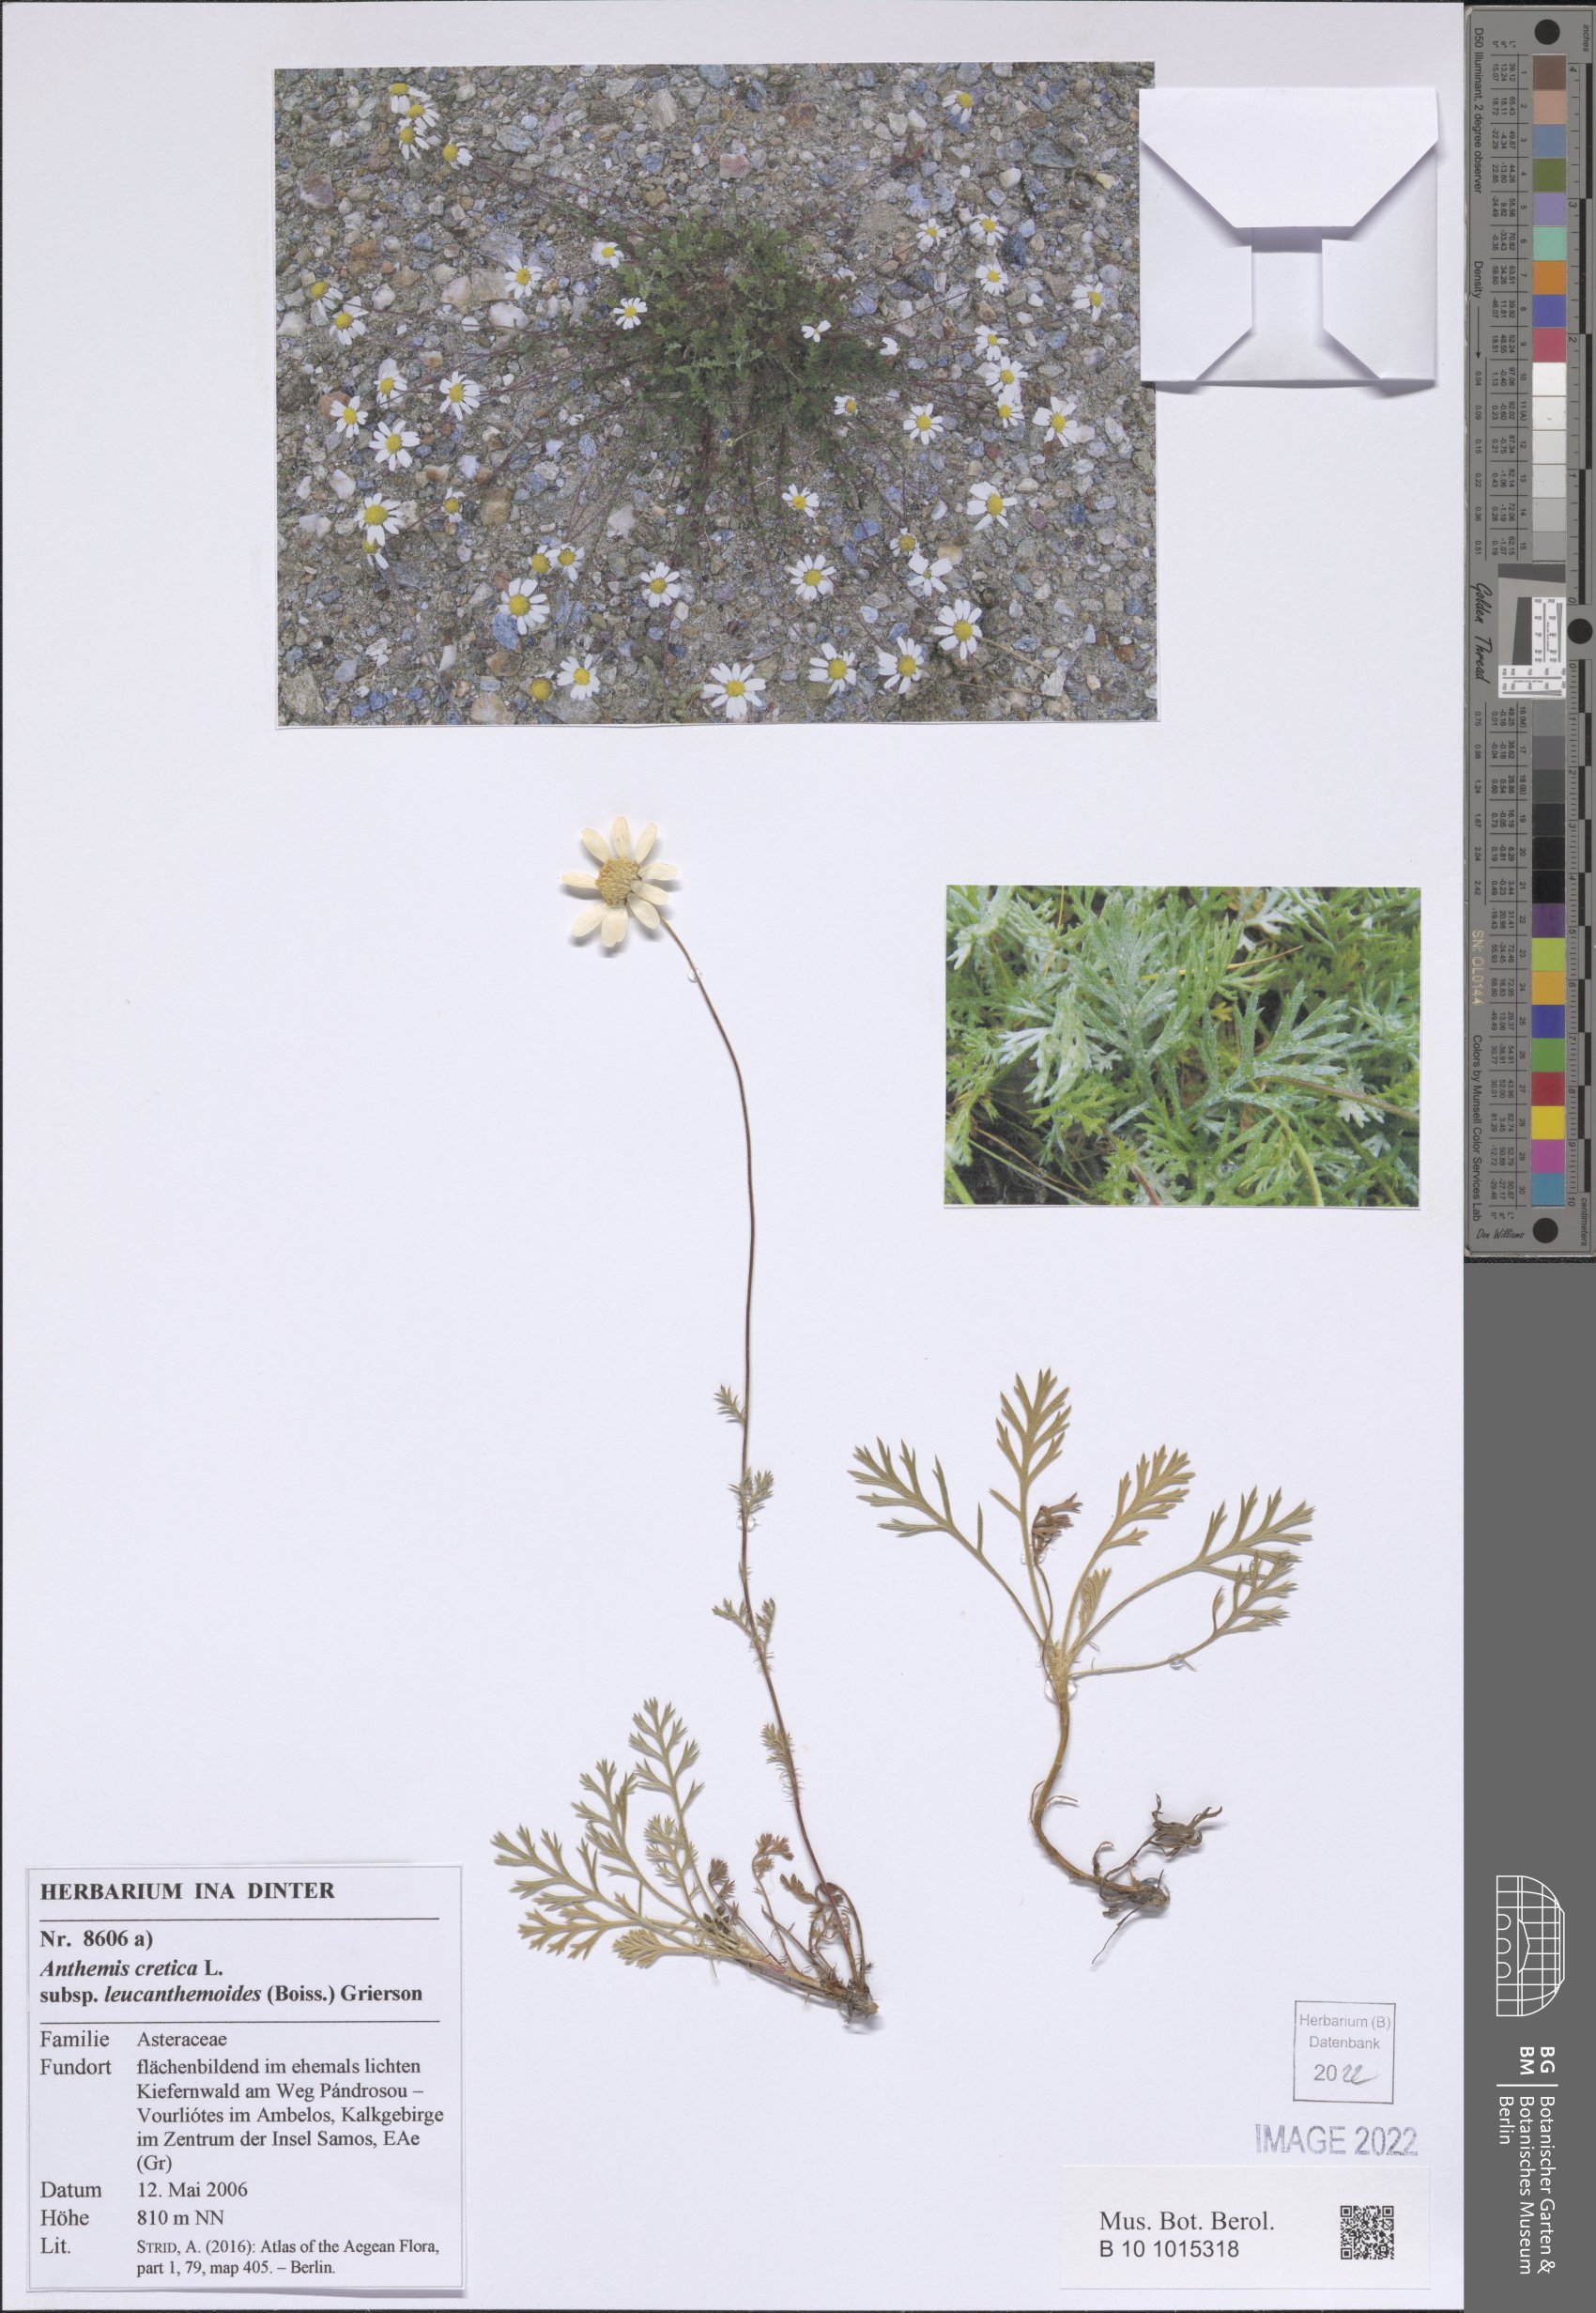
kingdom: Plantae
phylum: Tracheophyta
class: Magnoliopsida
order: Asterales
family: Asteraceae
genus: Anthemis
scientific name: Anthemis cretica
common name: Mountain dog-daisy
